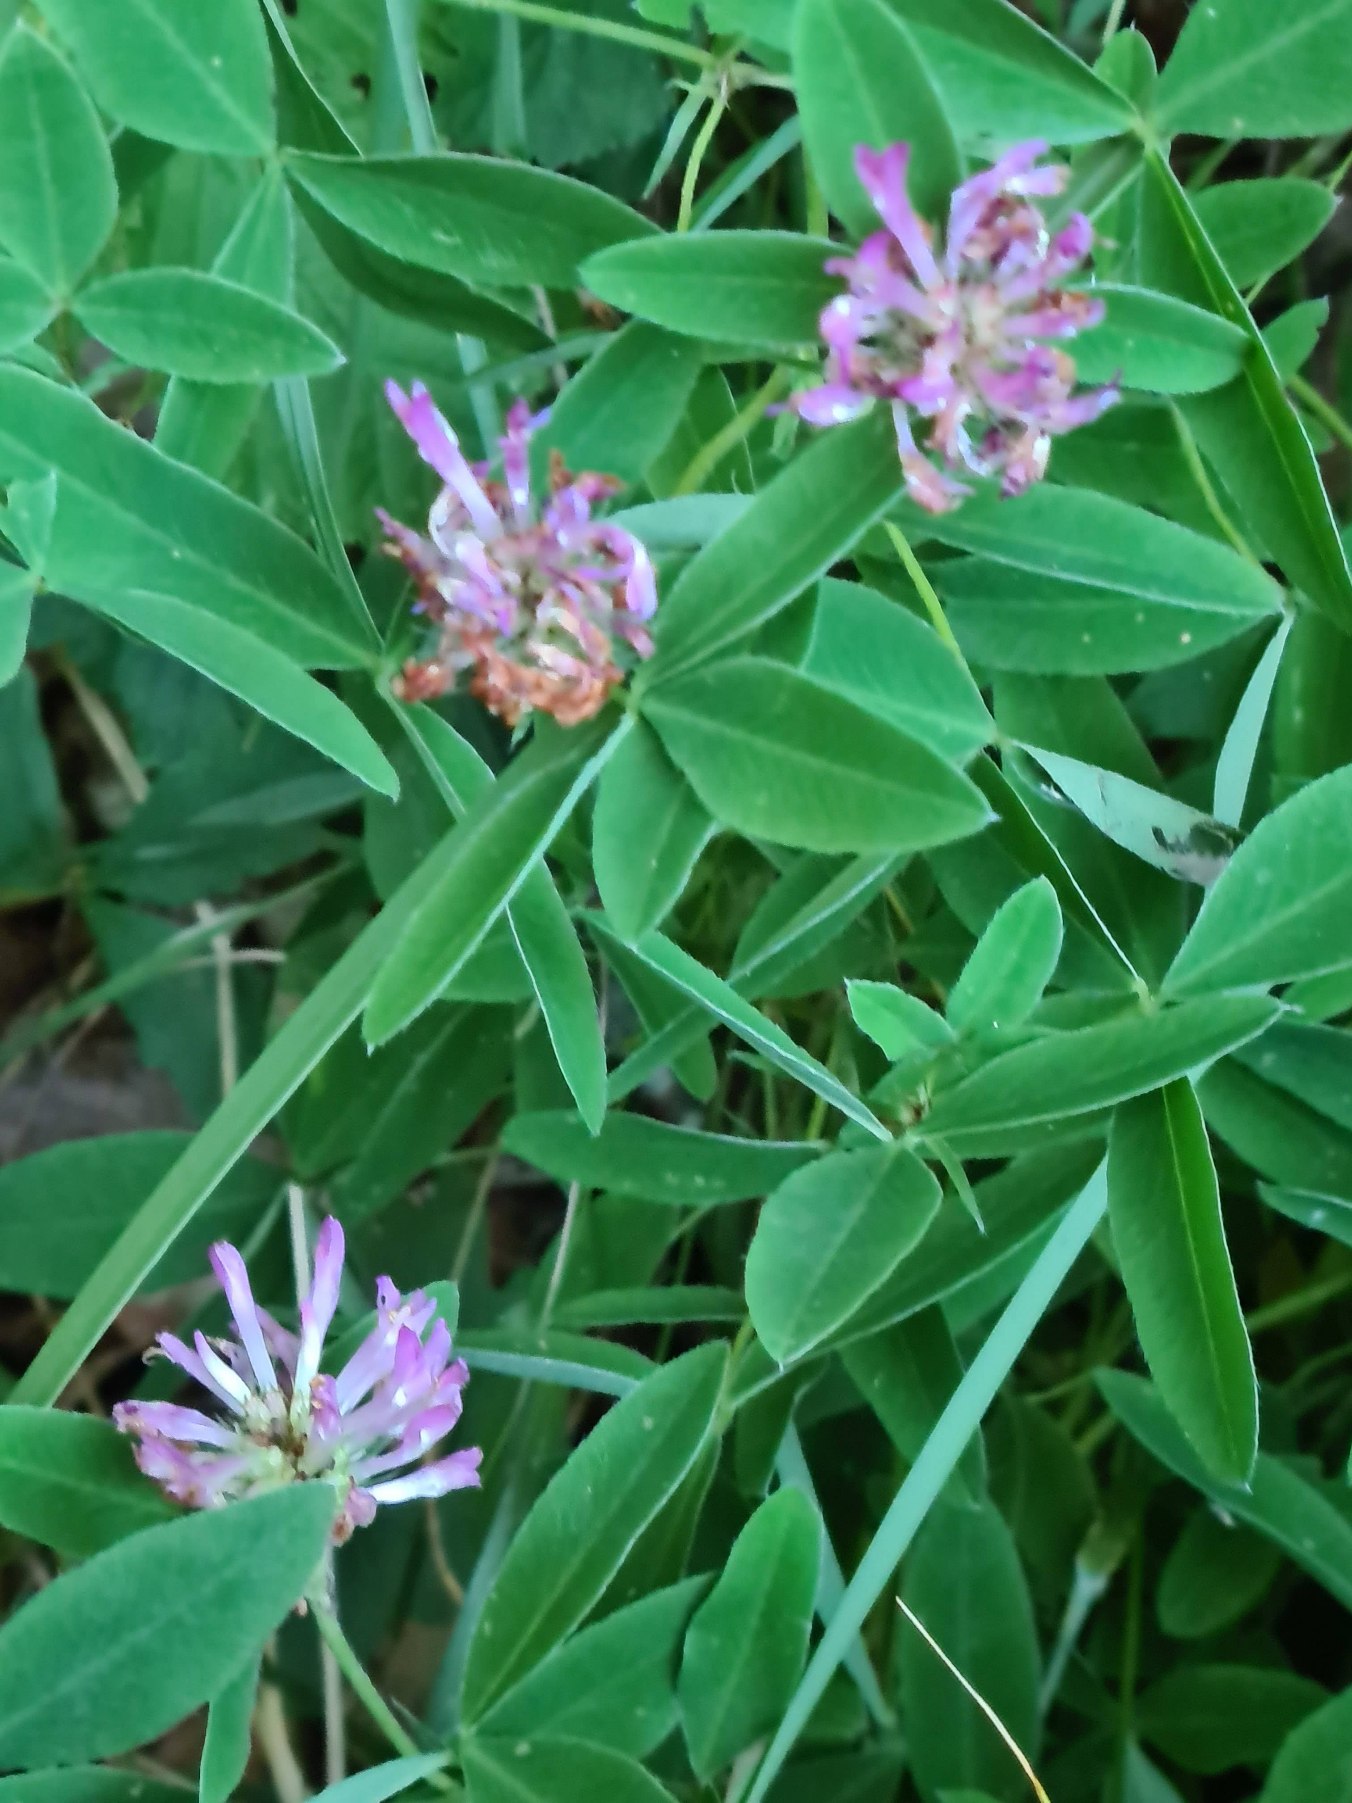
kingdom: Plantae
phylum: Tracheophyta
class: Magnoliopsida
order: Fabales
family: Fabaceae
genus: Trifolium
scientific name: Trifolium medium
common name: Bugtet kløver
